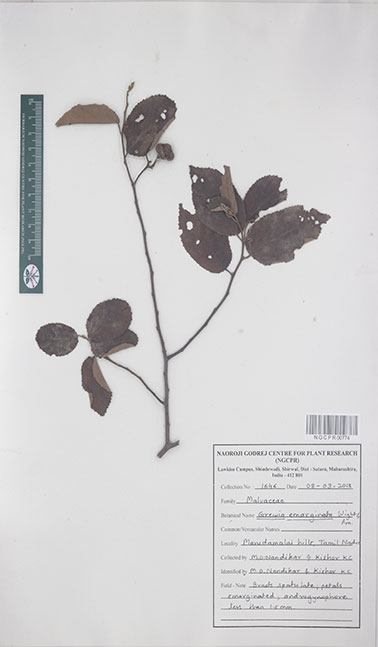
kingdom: Plantae
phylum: Tracheophyta
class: Magnoliopsida
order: Malvales
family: Malvaceae
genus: Grewia
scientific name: Grewia oppositifolia
